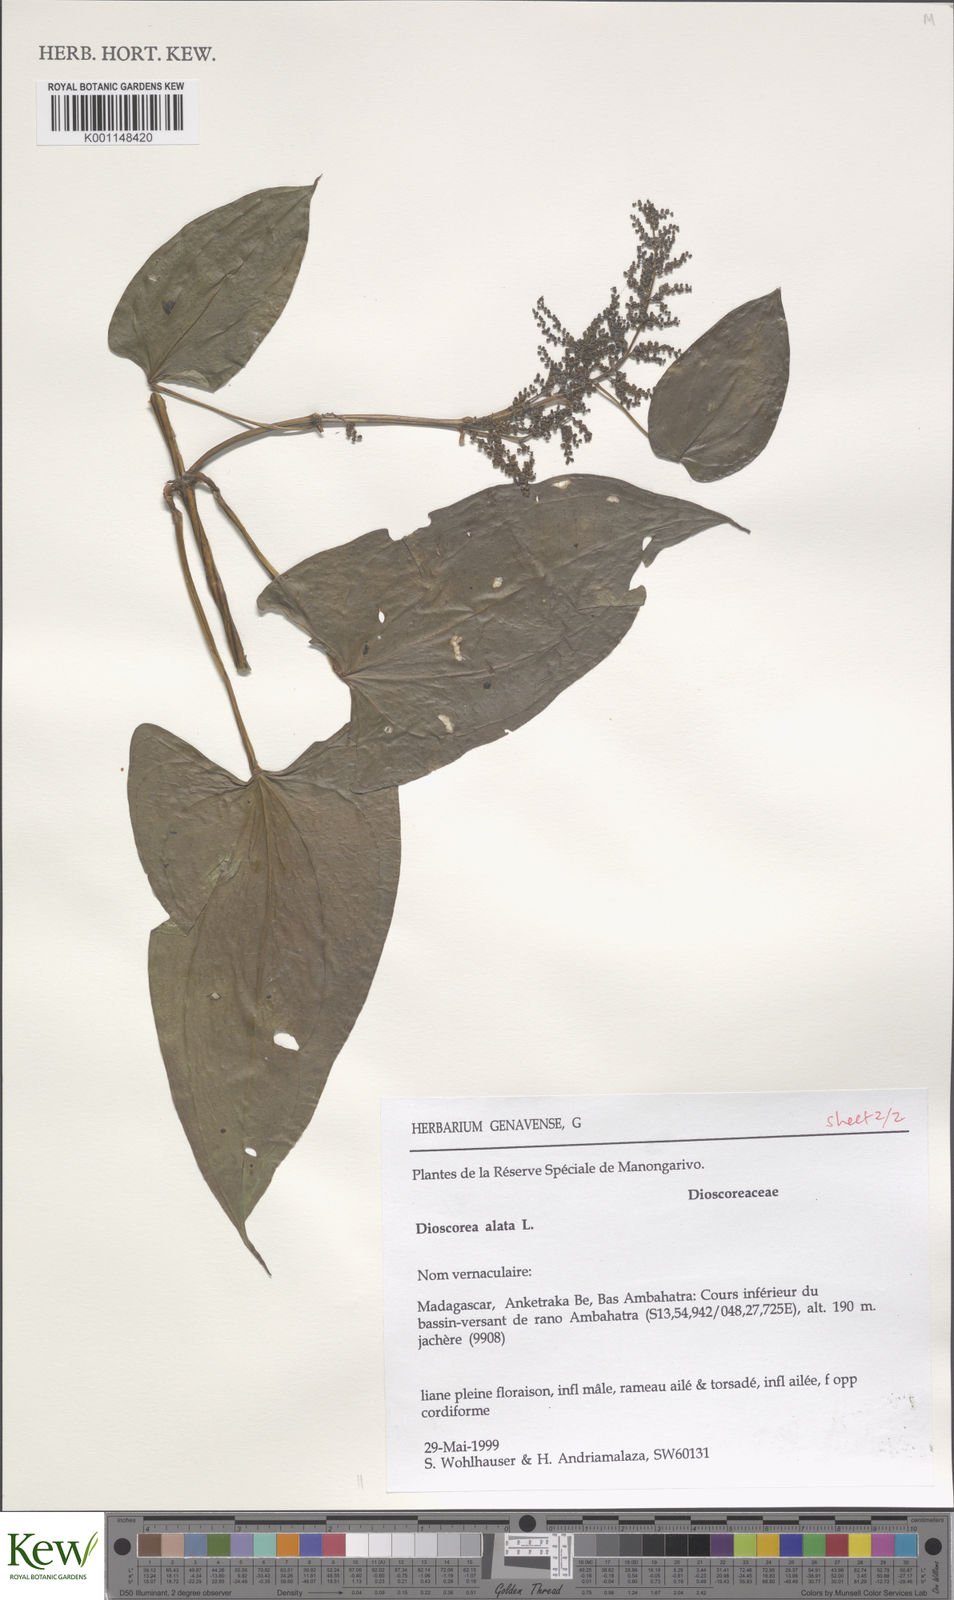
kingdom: Plantae
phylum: Tracheophyta
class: Liliopsida
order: Dioscoreales
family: Dioscoreaceae
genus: Dioscorea
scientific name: Dioscorea alata
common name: Water yam
